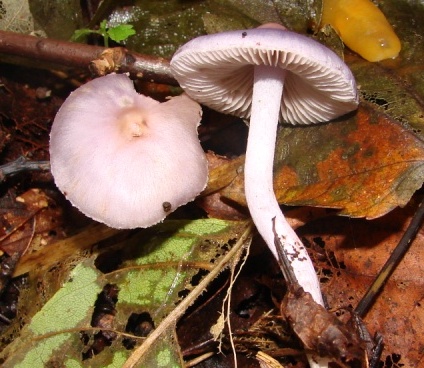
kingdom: Fungi
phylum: Basidiomycota
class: Agaricomycetes
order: Agaricales
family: Inocybaceae
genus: Inocybe
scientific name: Inocybe geophylla
